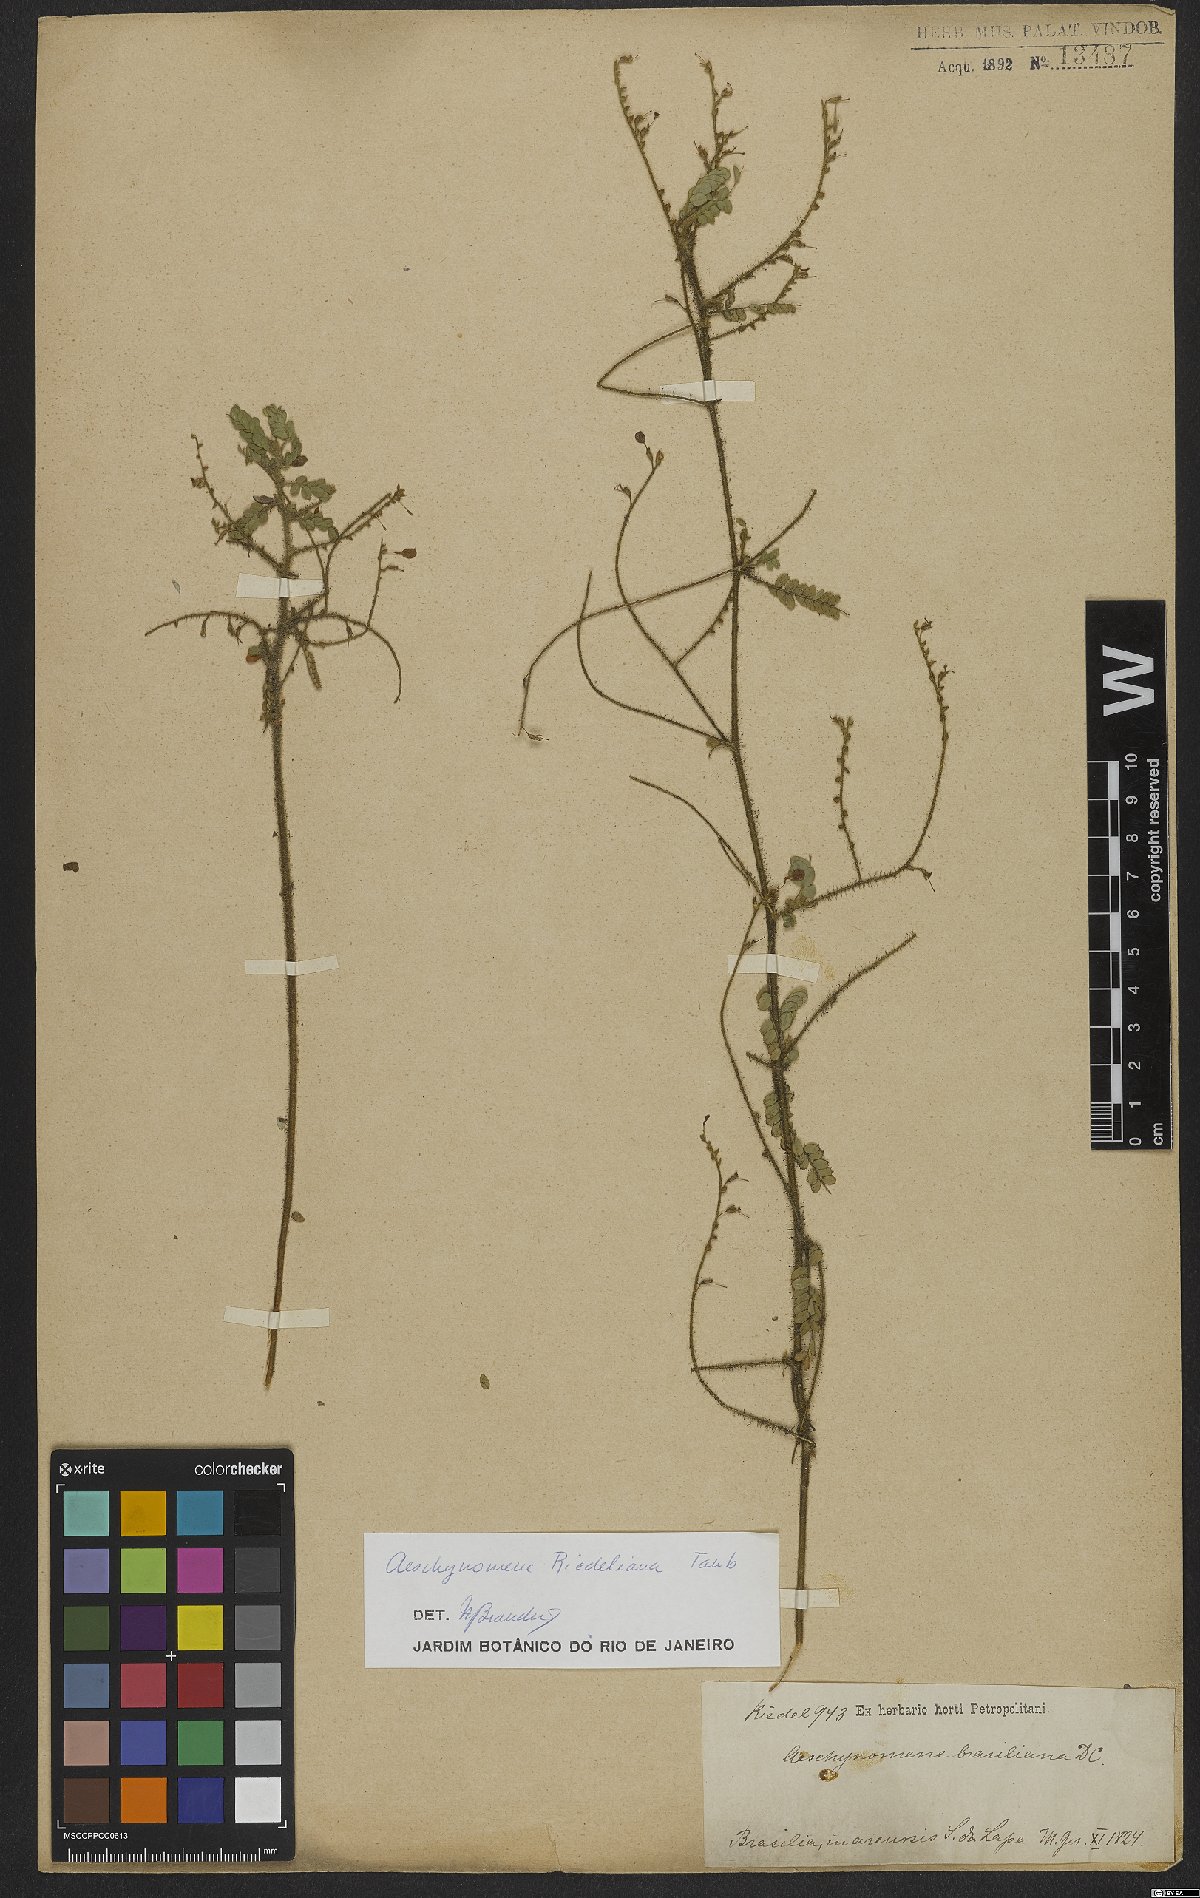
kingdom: Plantae
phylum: Tracheophyta
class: Magnoliopsida
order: Fabales
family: Fabaceae
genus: Ctenodon
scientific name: Ctenodon riedelianus
